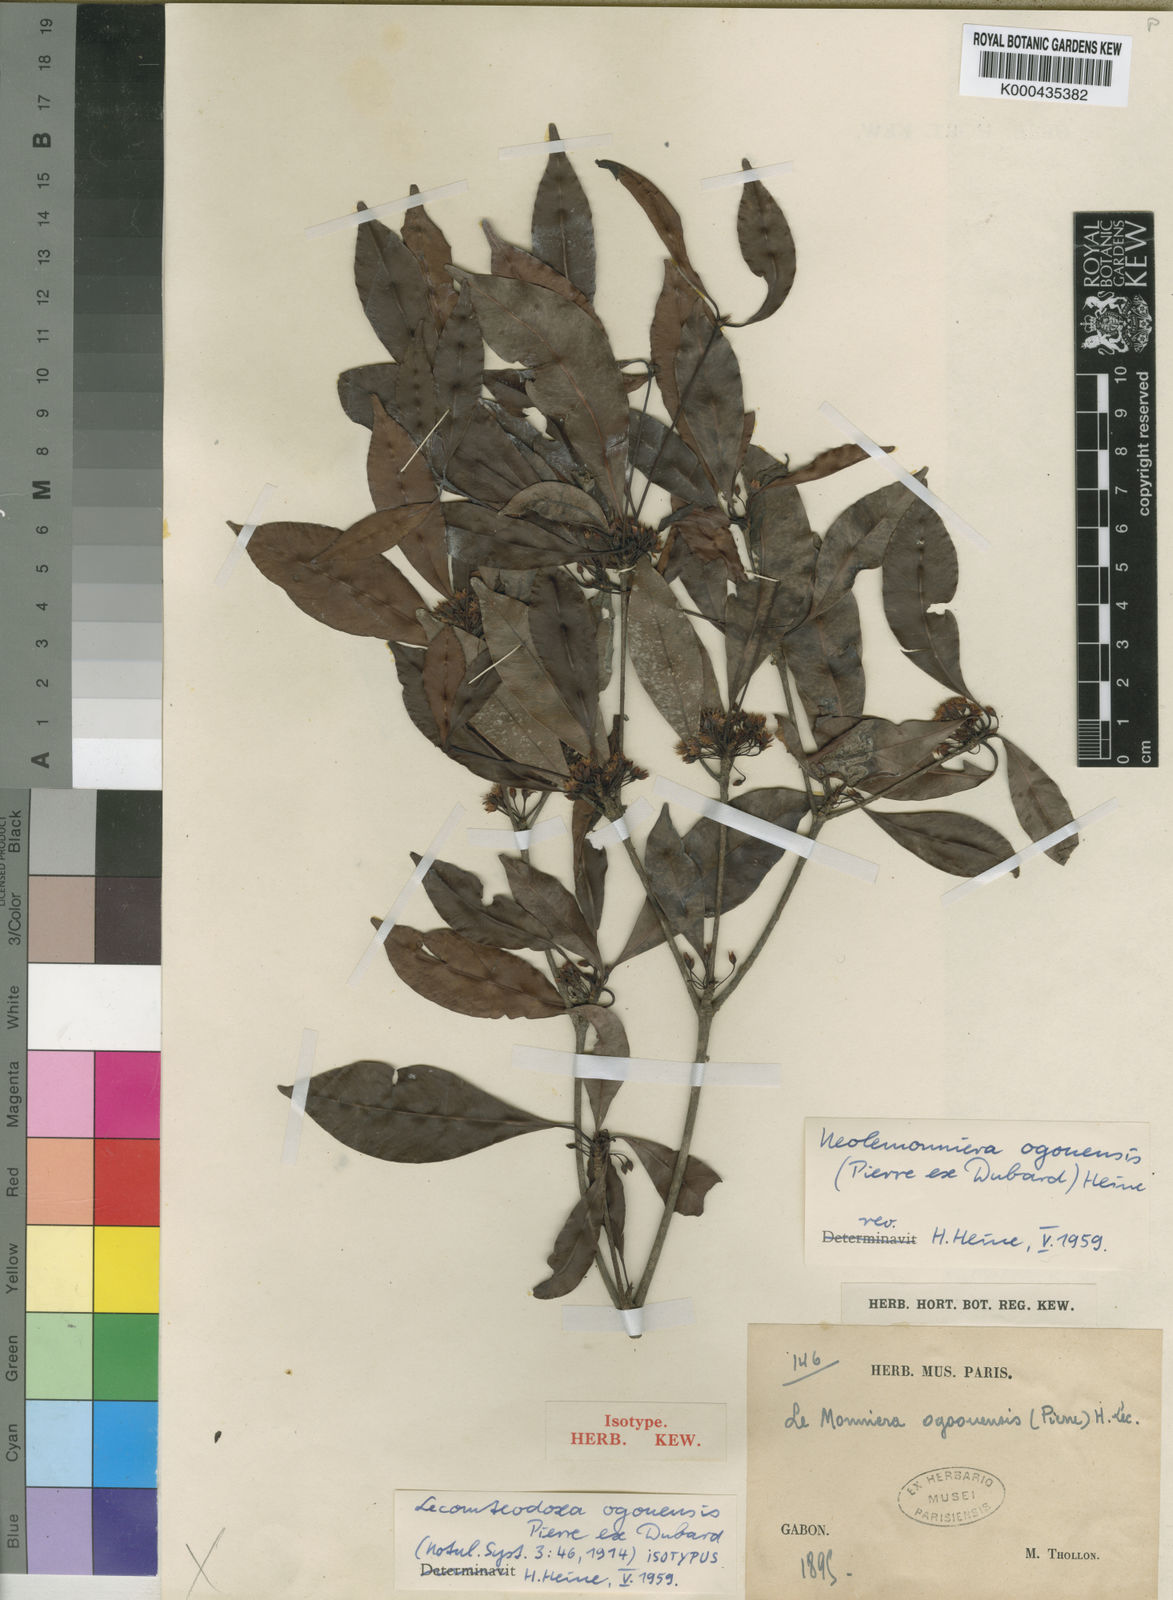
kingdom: Plantae
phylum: Tracheophyta
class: Magnoliopsida
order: Ericales
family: Sapotaceae
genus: Neolemonniera
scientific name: Neolemonniera ogouensis
